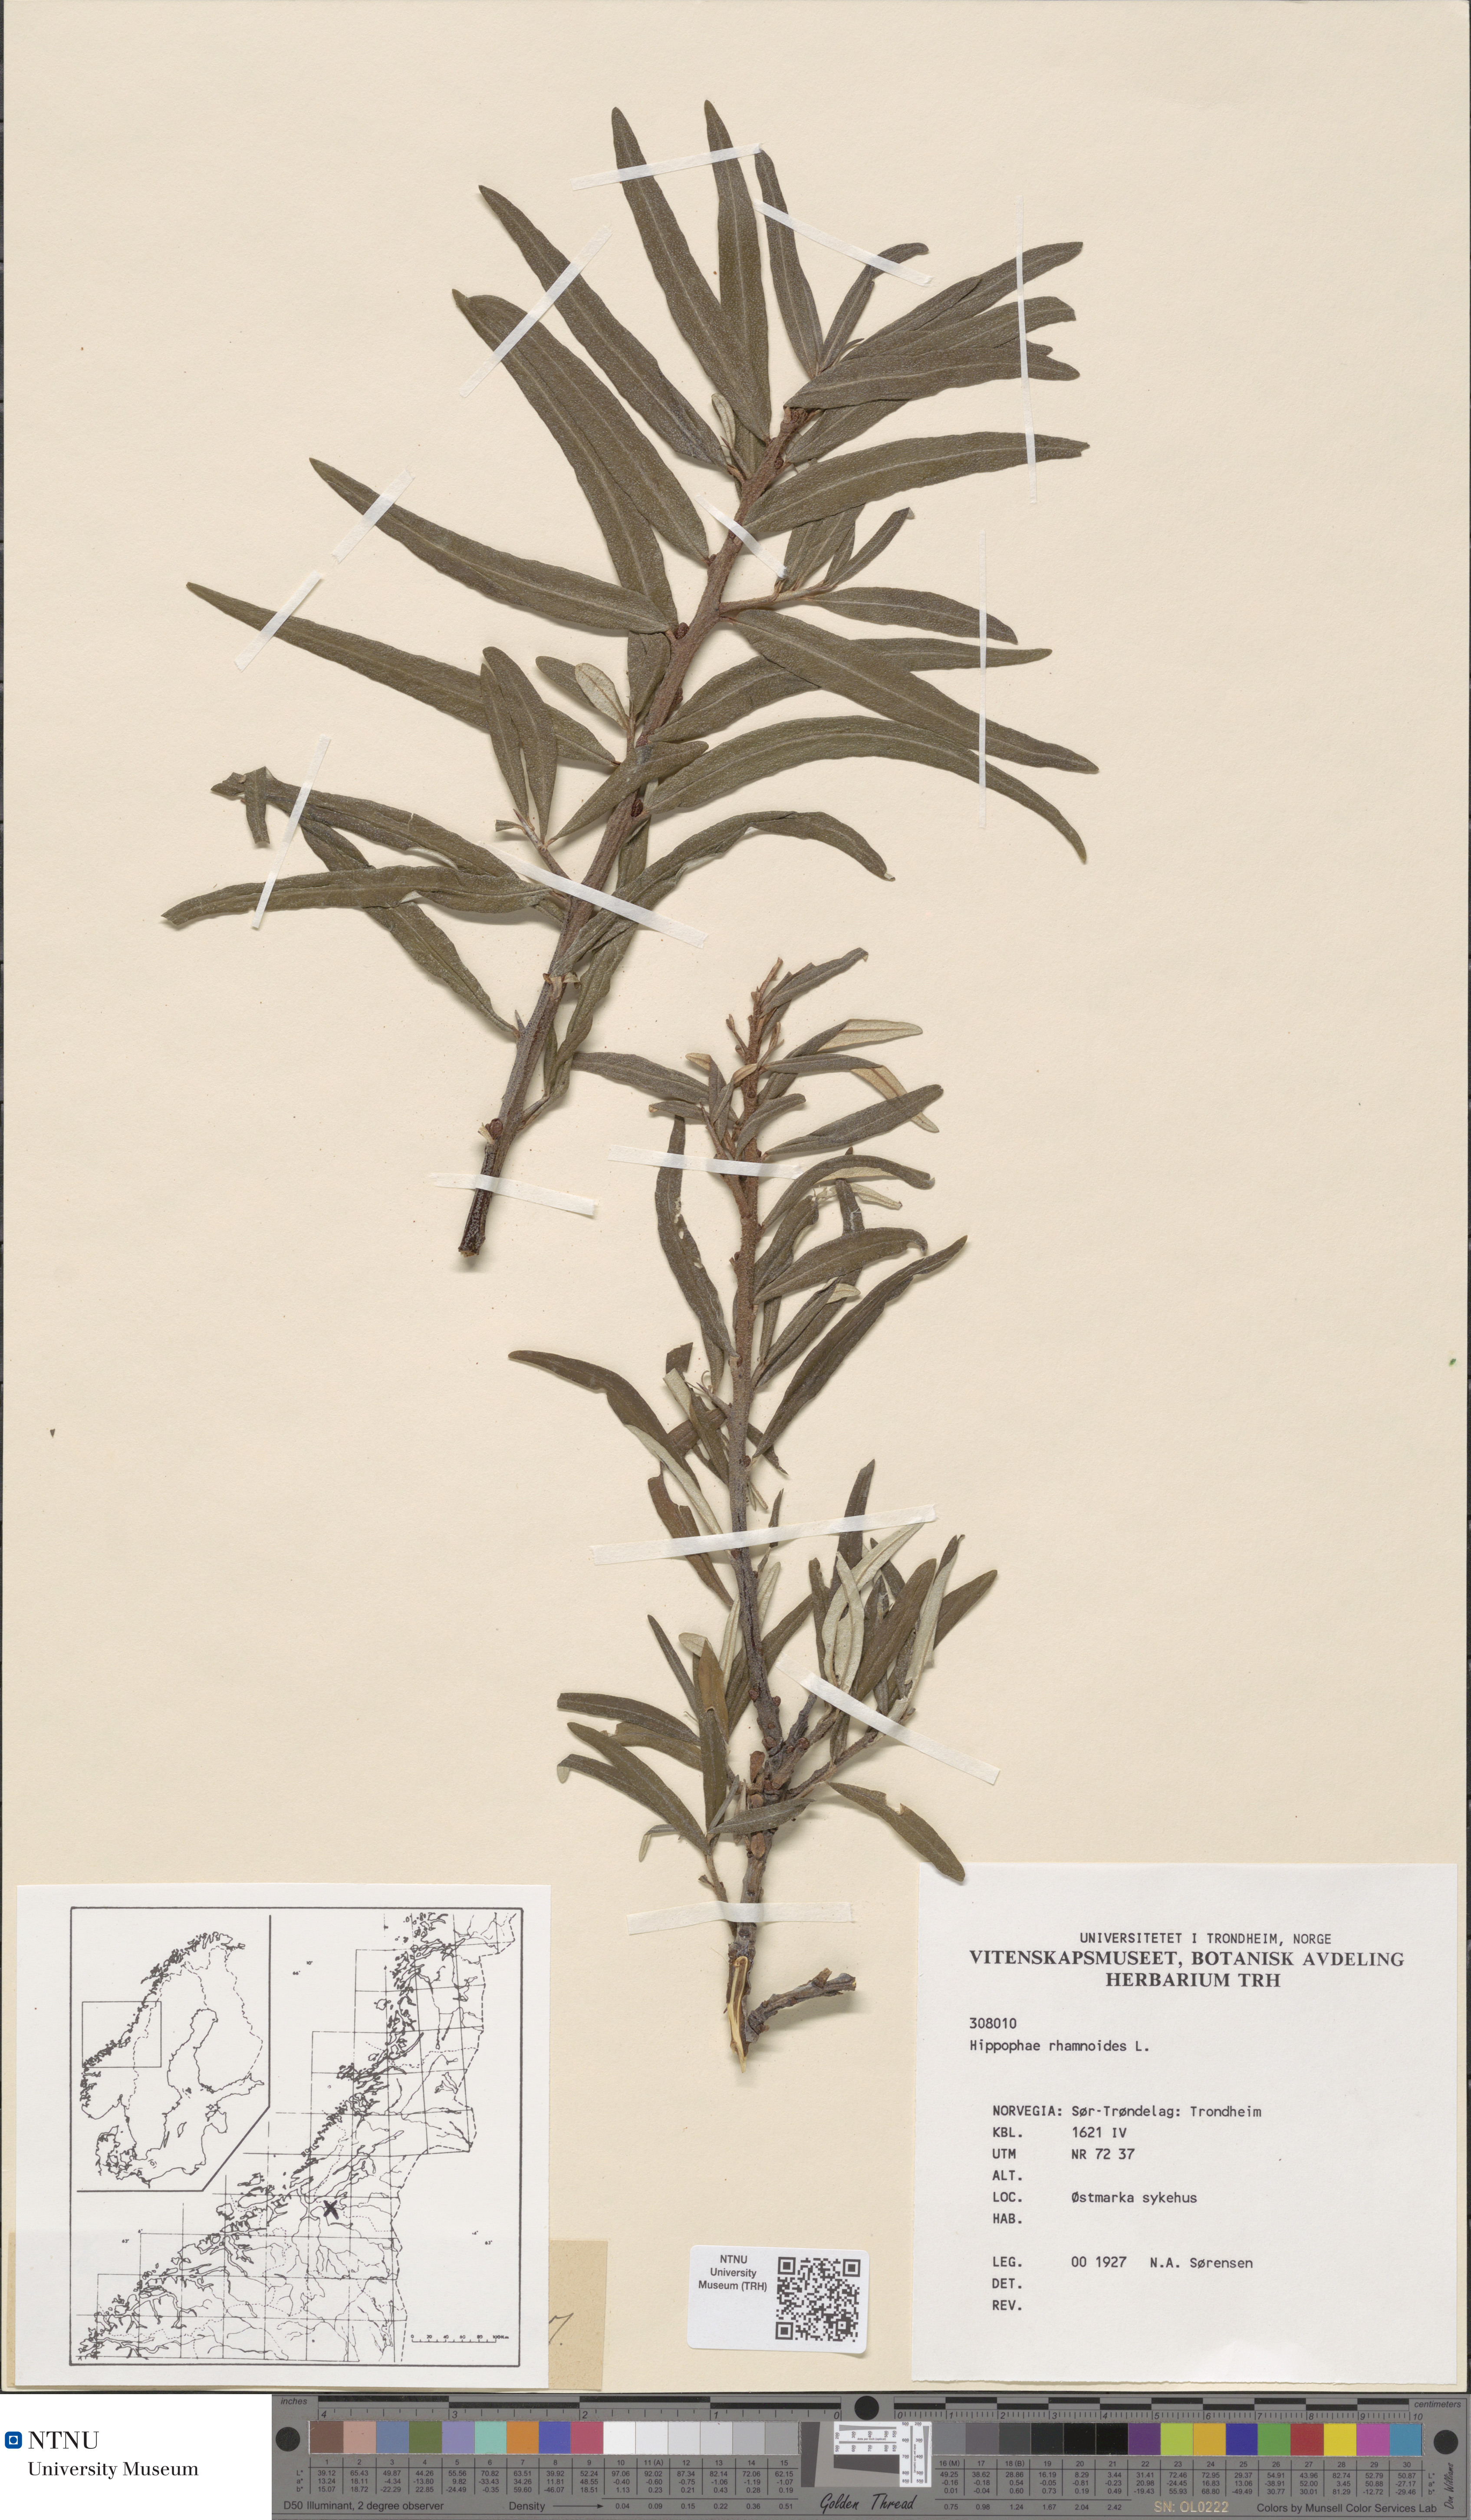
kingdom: Plantae
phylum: Tracheophyta
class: Magnoliopsida
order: Rosales
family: Elaeagnaceae
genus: Hippophae
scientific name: Hippophae rhamnoides
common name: Sea-buckthorn
